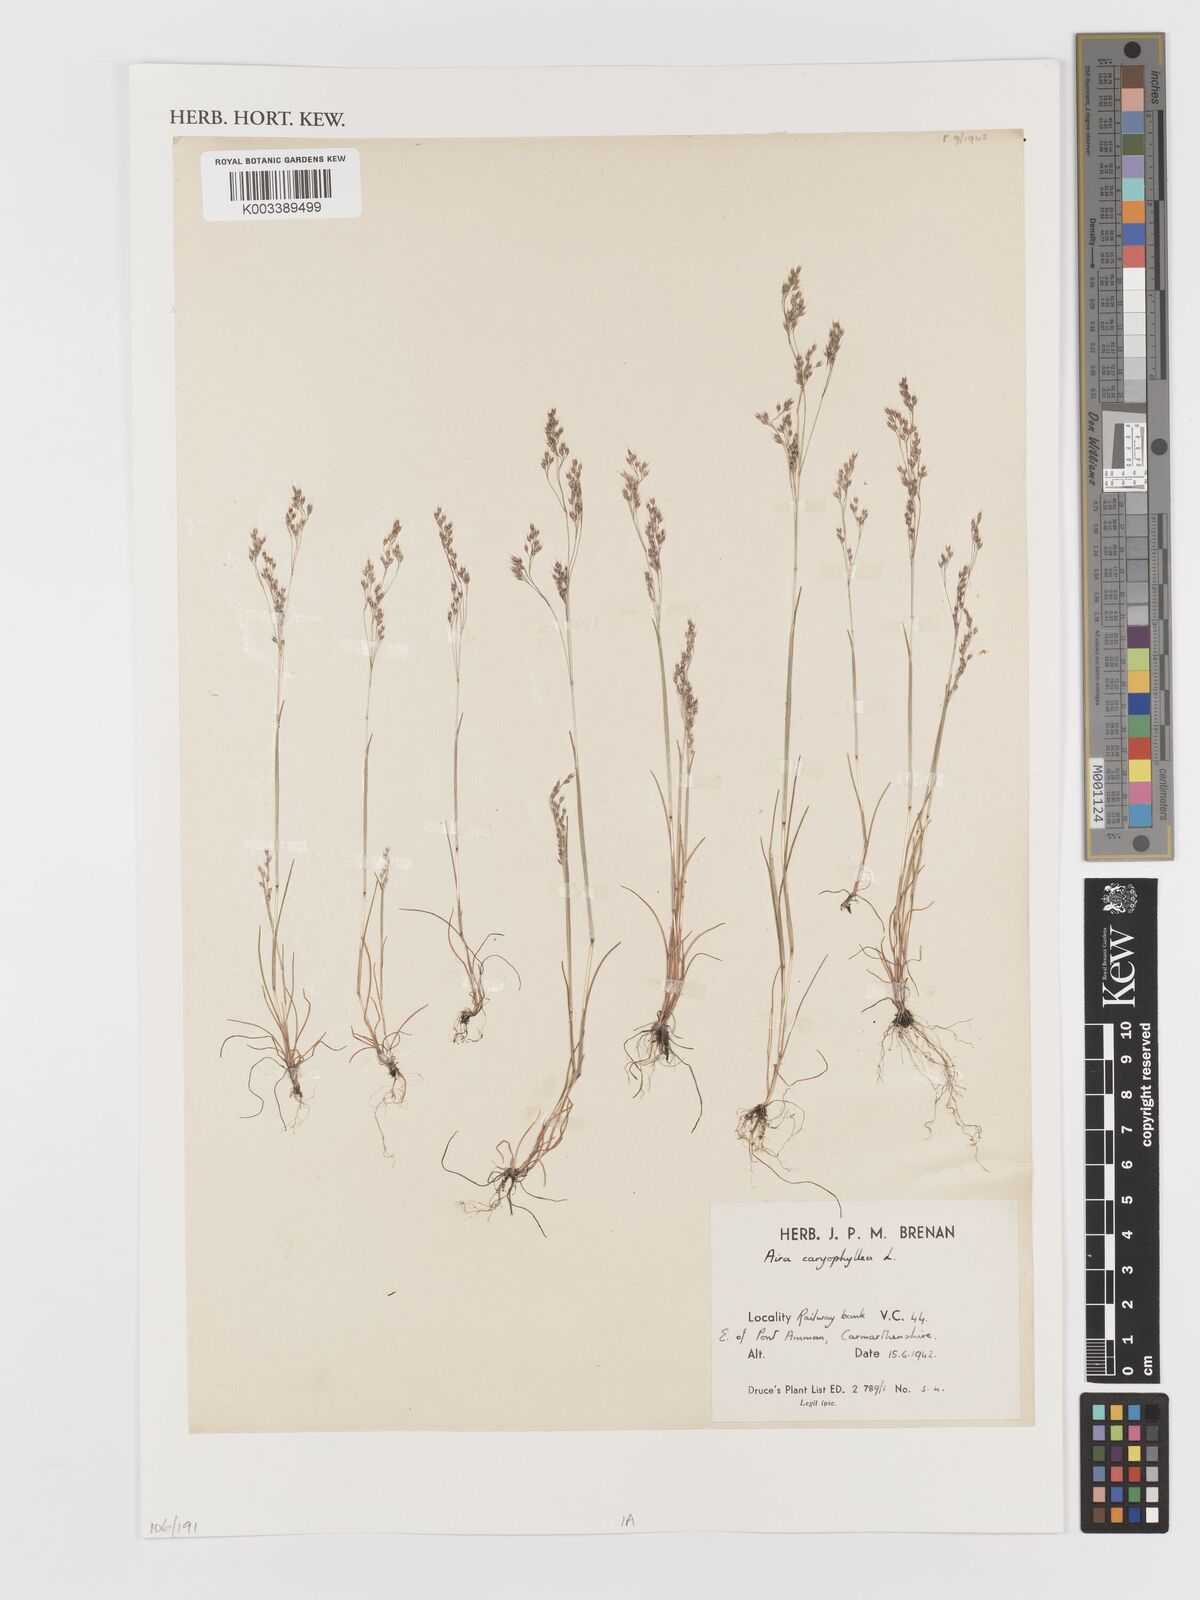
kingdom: Plantae
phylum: Tracheophyta
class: Liliopsida
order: Poales
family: Poaceae
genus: Aira
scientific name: Aira caryophyllea
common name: Silver hairgrass
